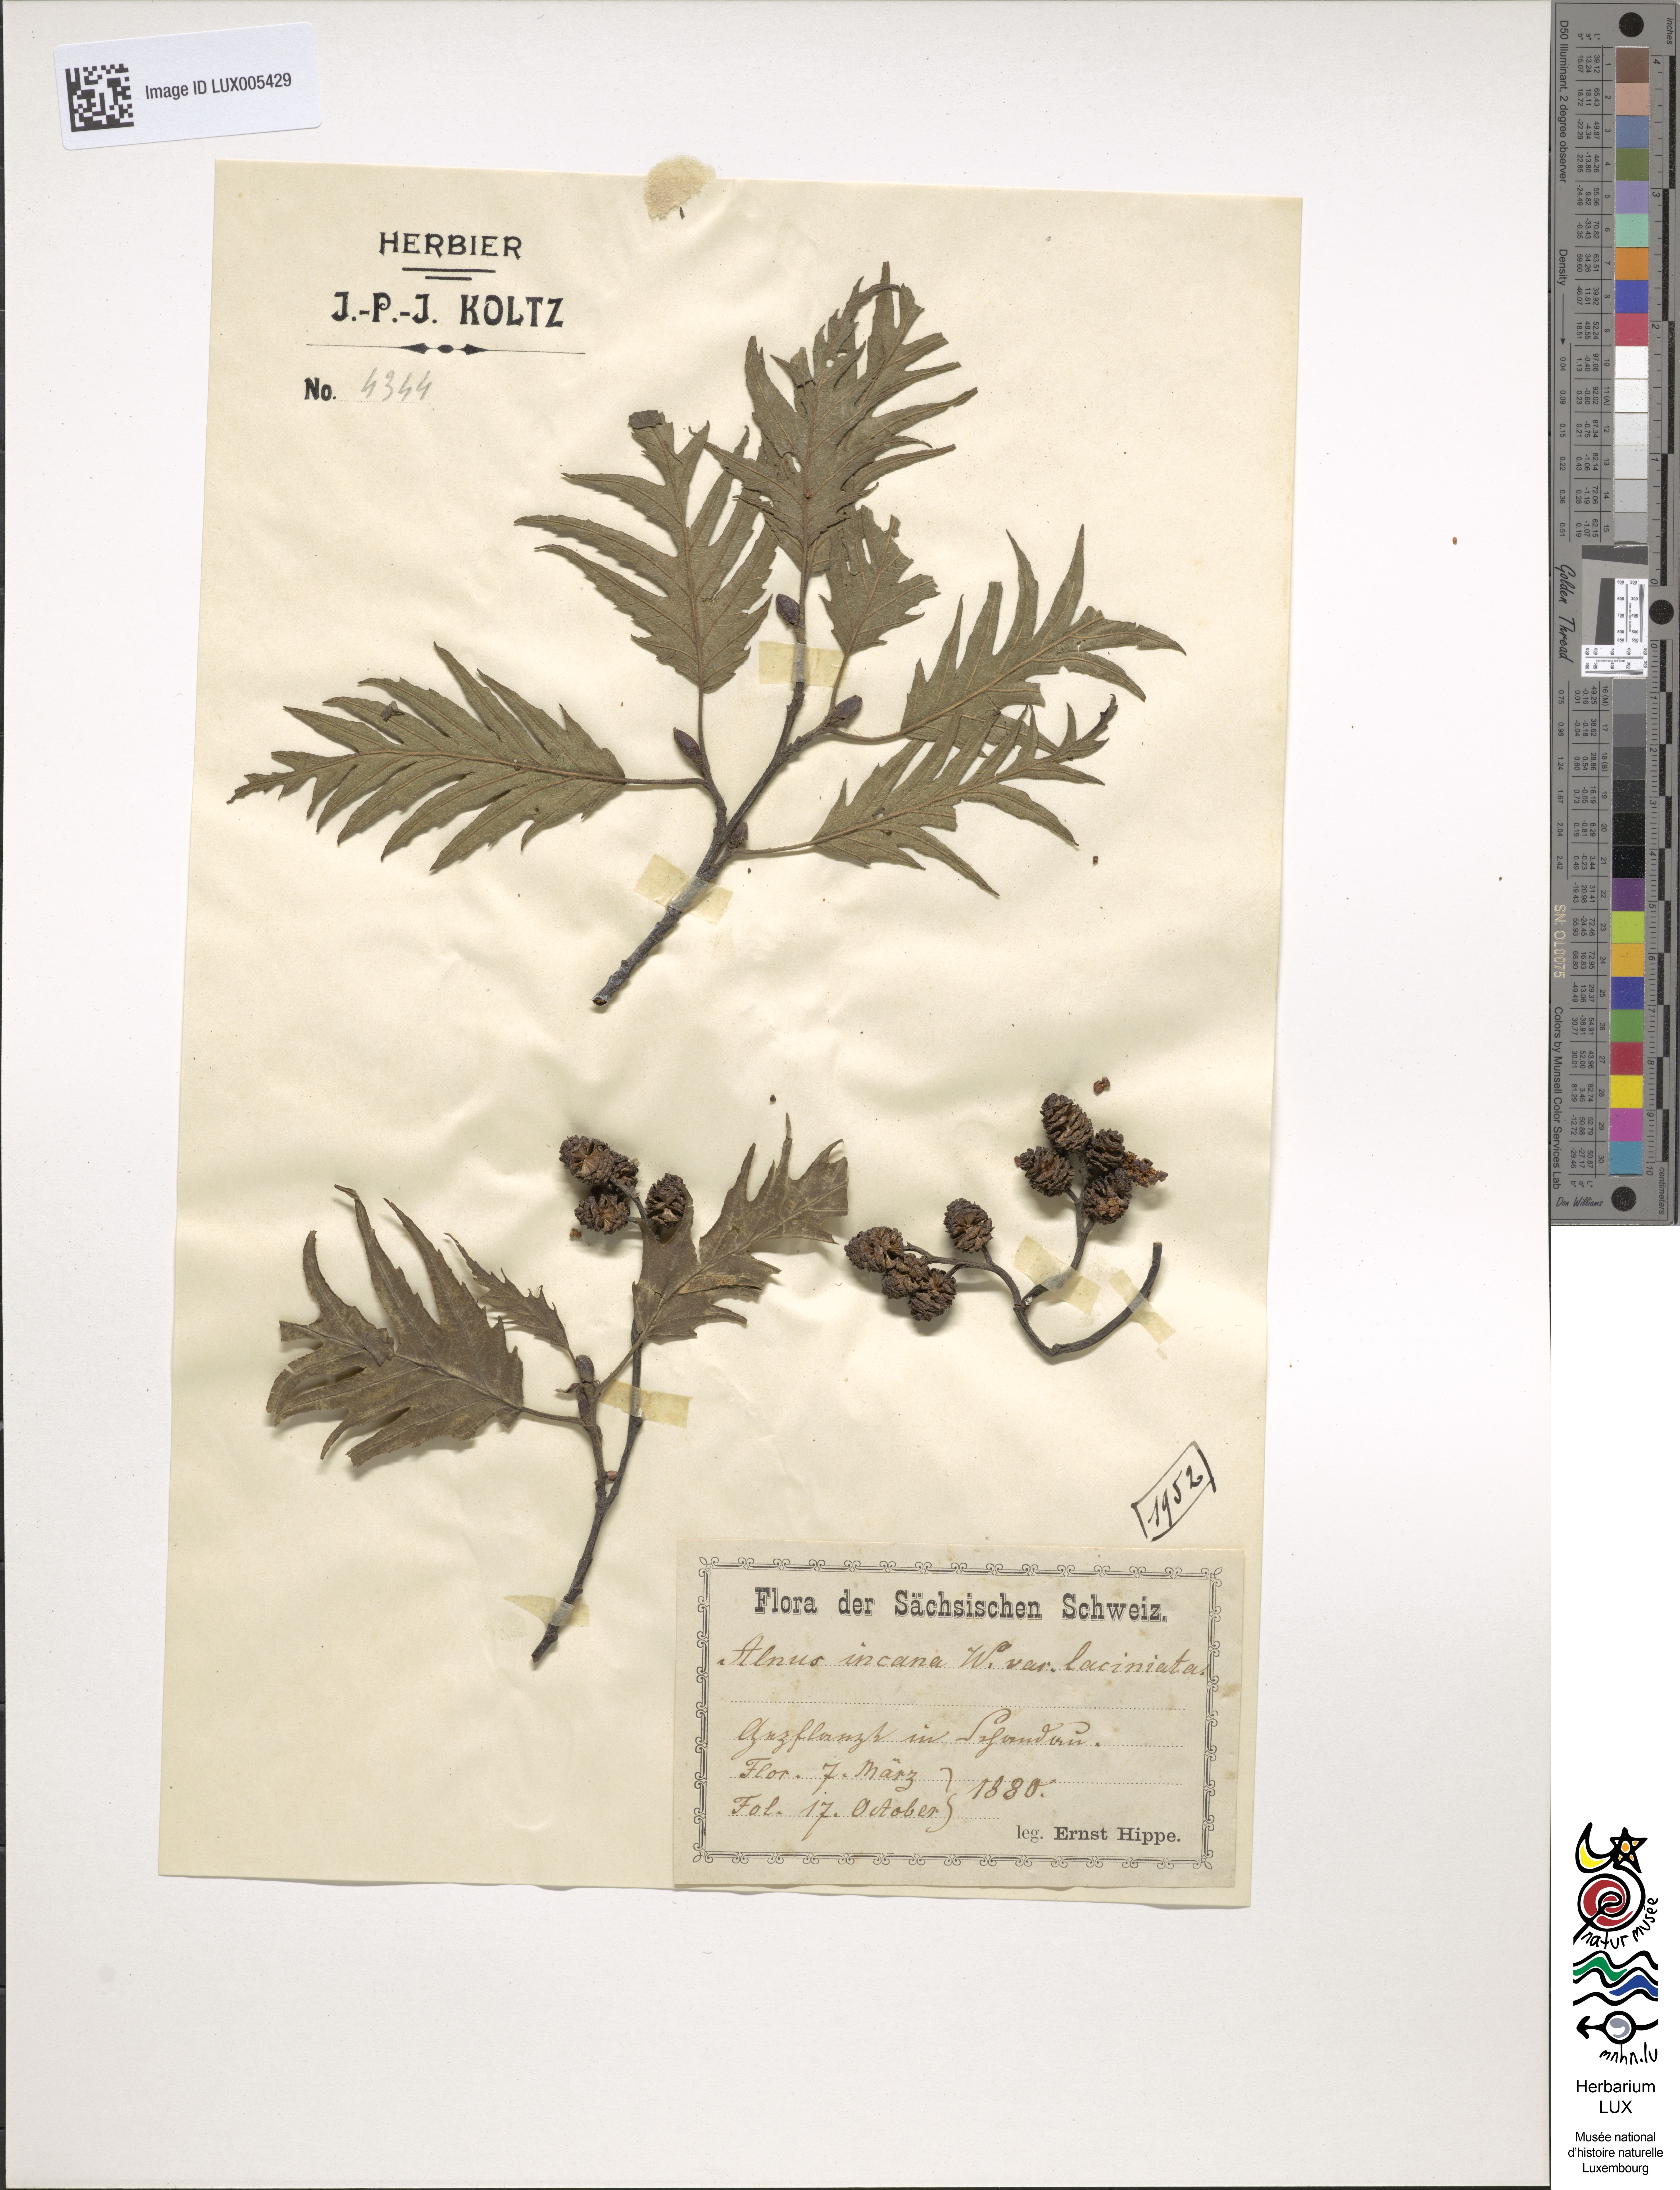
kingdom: Plantae
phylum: Tracheophyta
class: Magnoliopsida
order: Fagales
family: Betulaceae
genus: Alnus
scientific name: Alnus incana
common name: Grey alder
